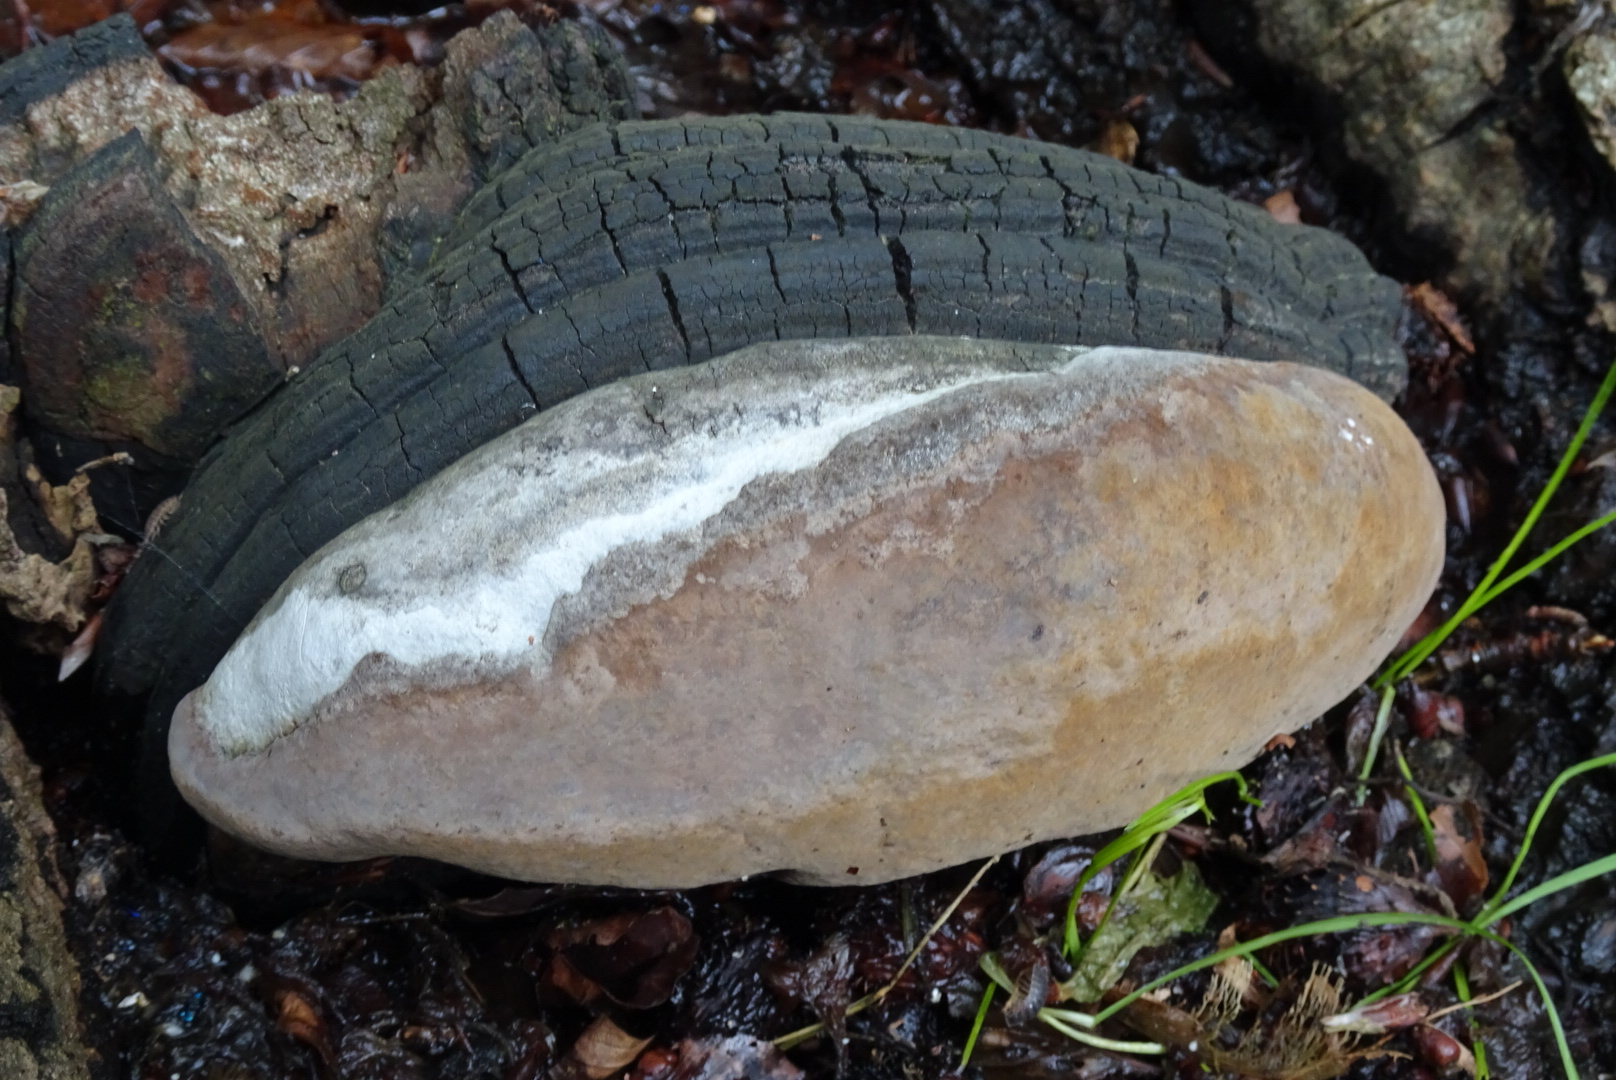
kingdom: Fungi
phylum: Basidiomycota
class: Agaricomycetes
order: Hymenochaetales
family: Hymenochaetaceae
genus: Phellinus
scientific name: Phellinus populicola
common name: poppel-ildporesvamp
